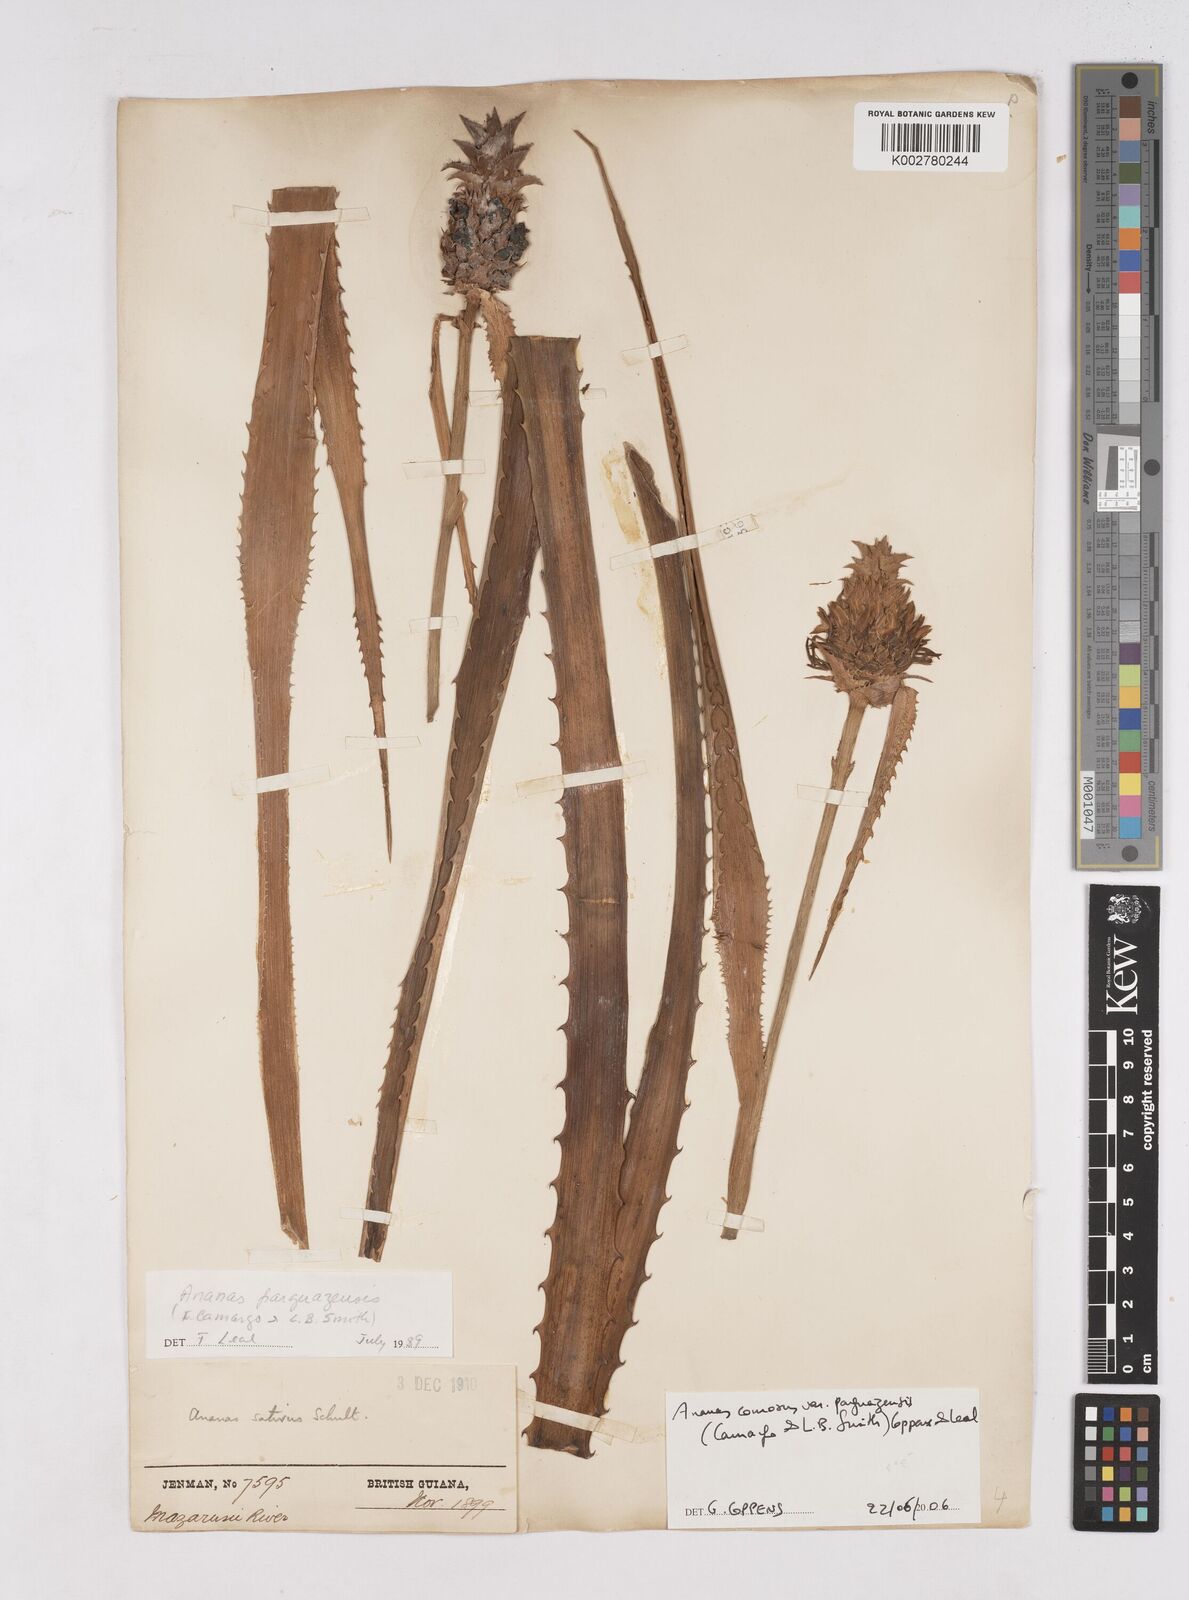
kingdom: Plantae
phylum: Tracheophyta
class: Liliopsida
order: Poales
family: Bromeliaceae
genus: Ananas
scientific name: Ananas comosus
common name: Pineapple
